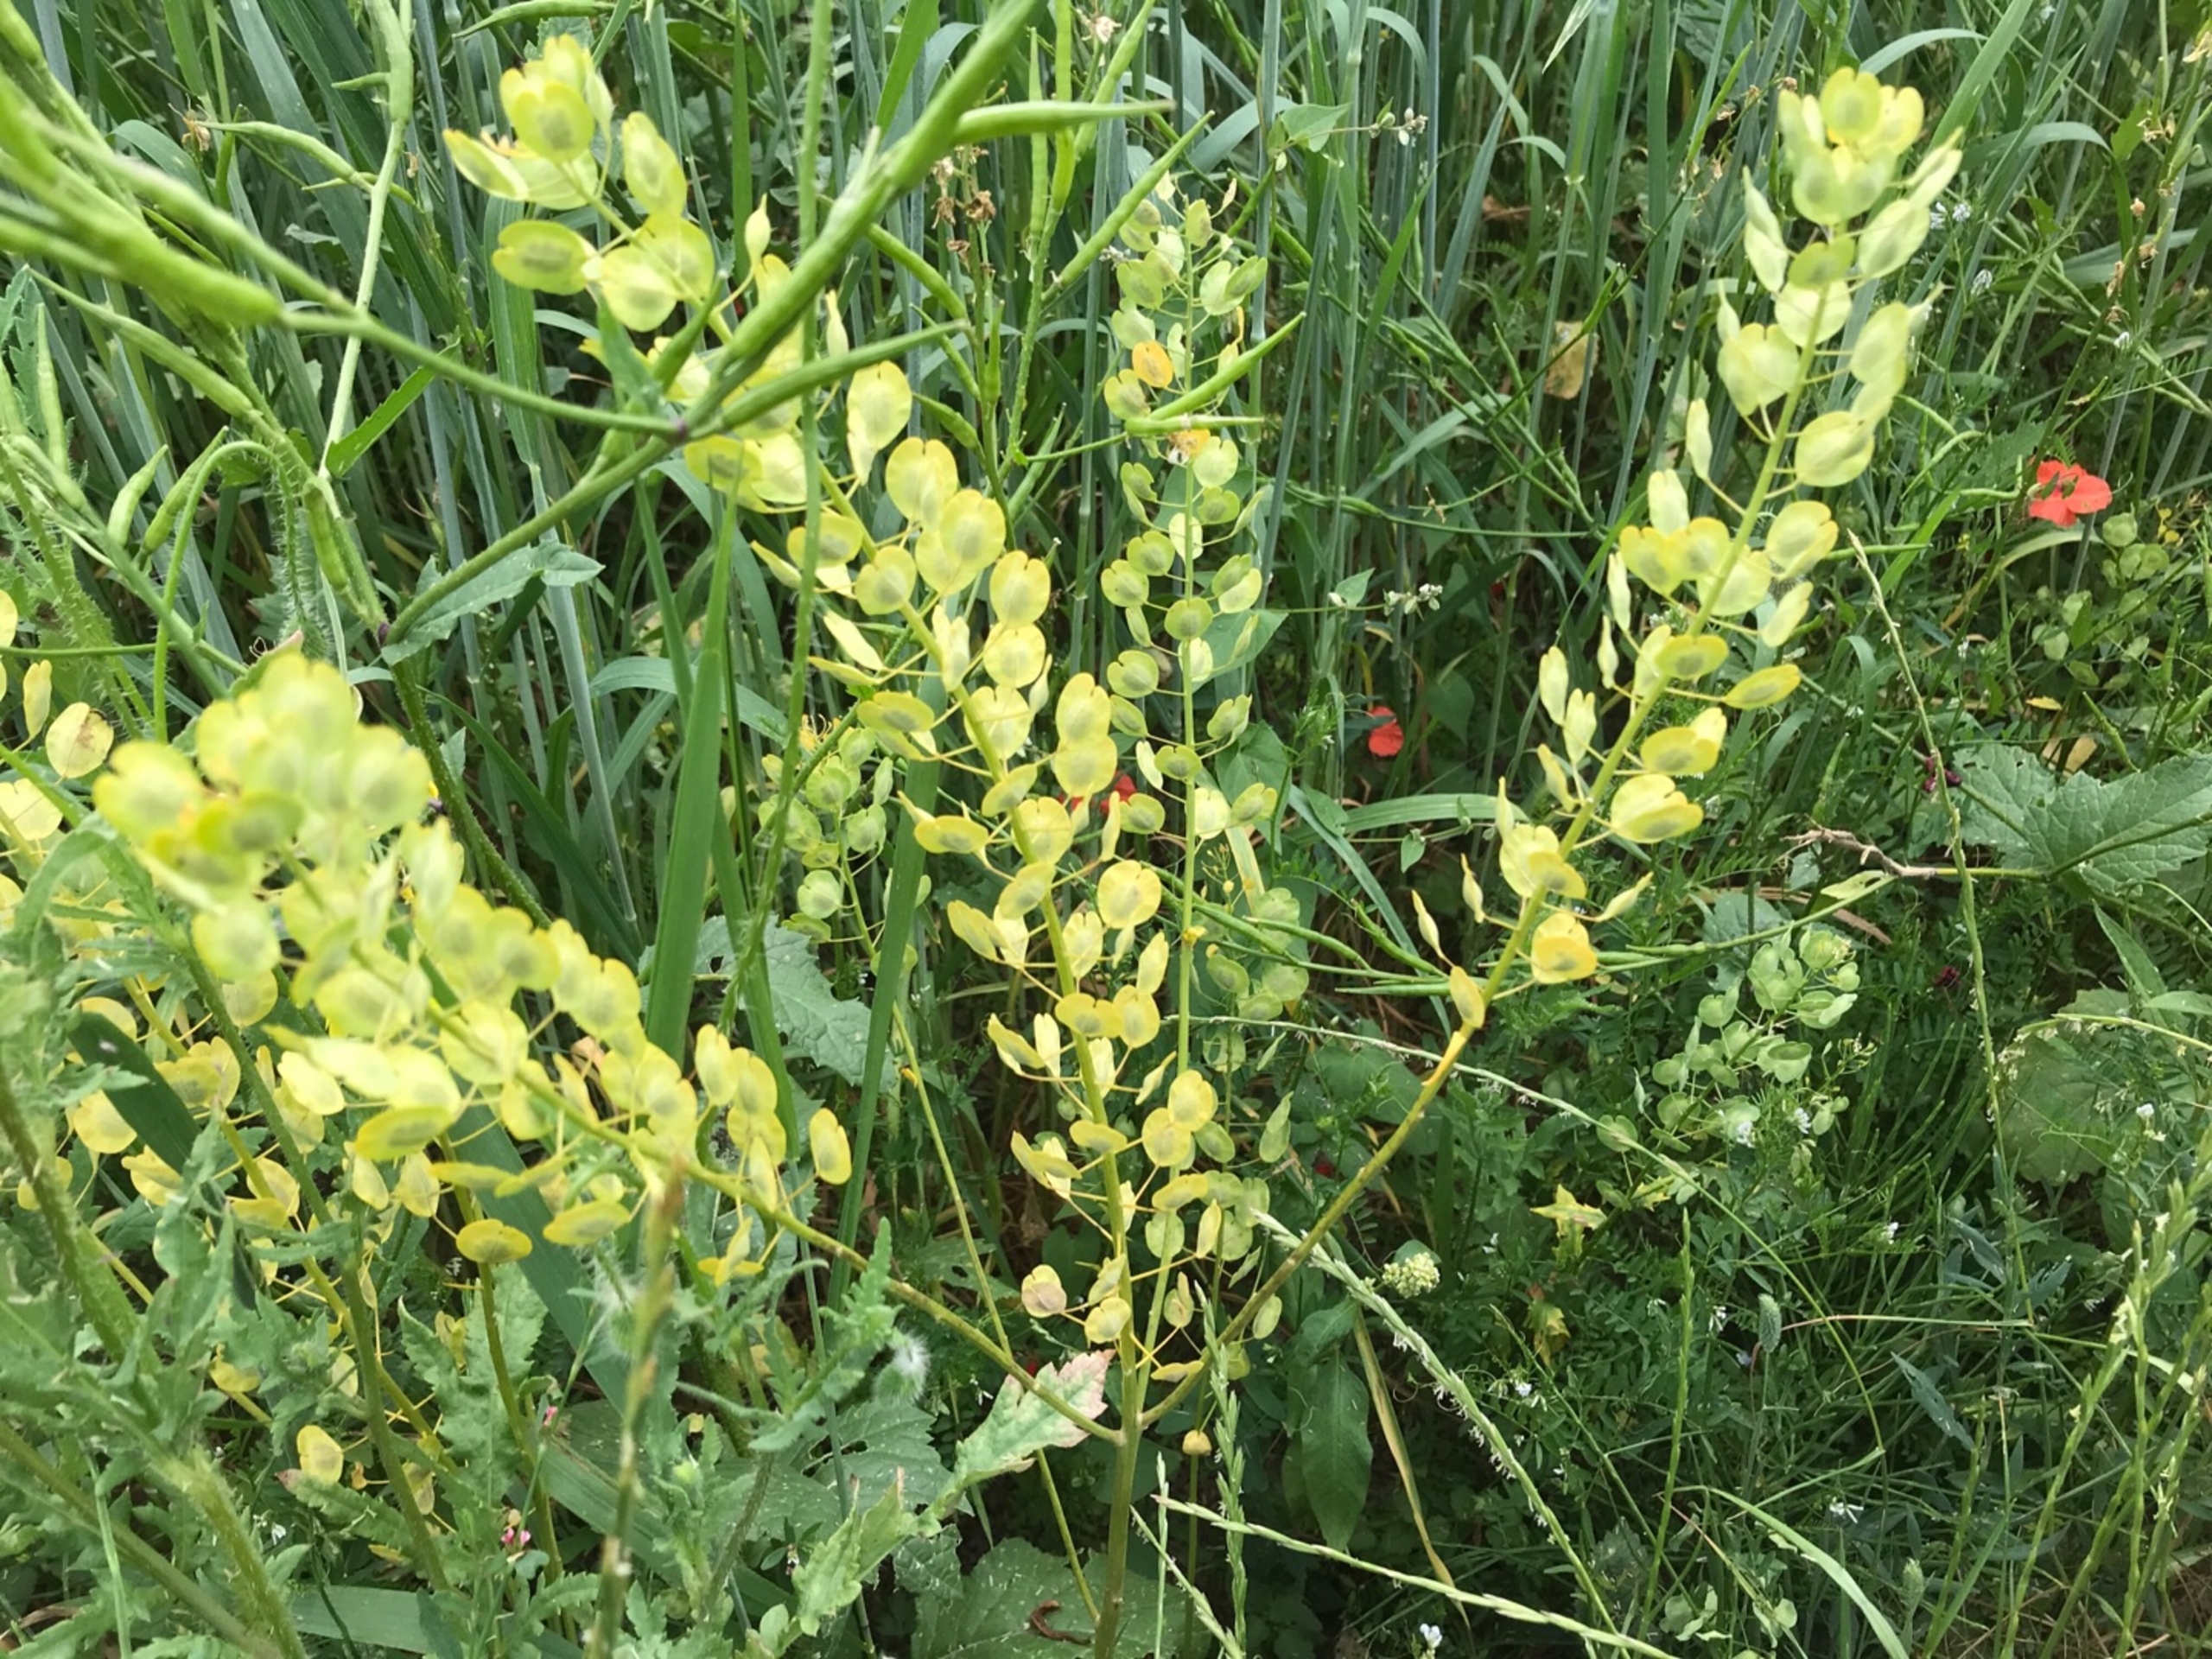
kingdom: Plantae
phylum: Tracheophyta
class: Magnoliopsida
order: Brassicales
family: Brassicaceae
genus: Thlaspi
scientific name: Thlaspi arvense
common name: Almindelig pengeurt
